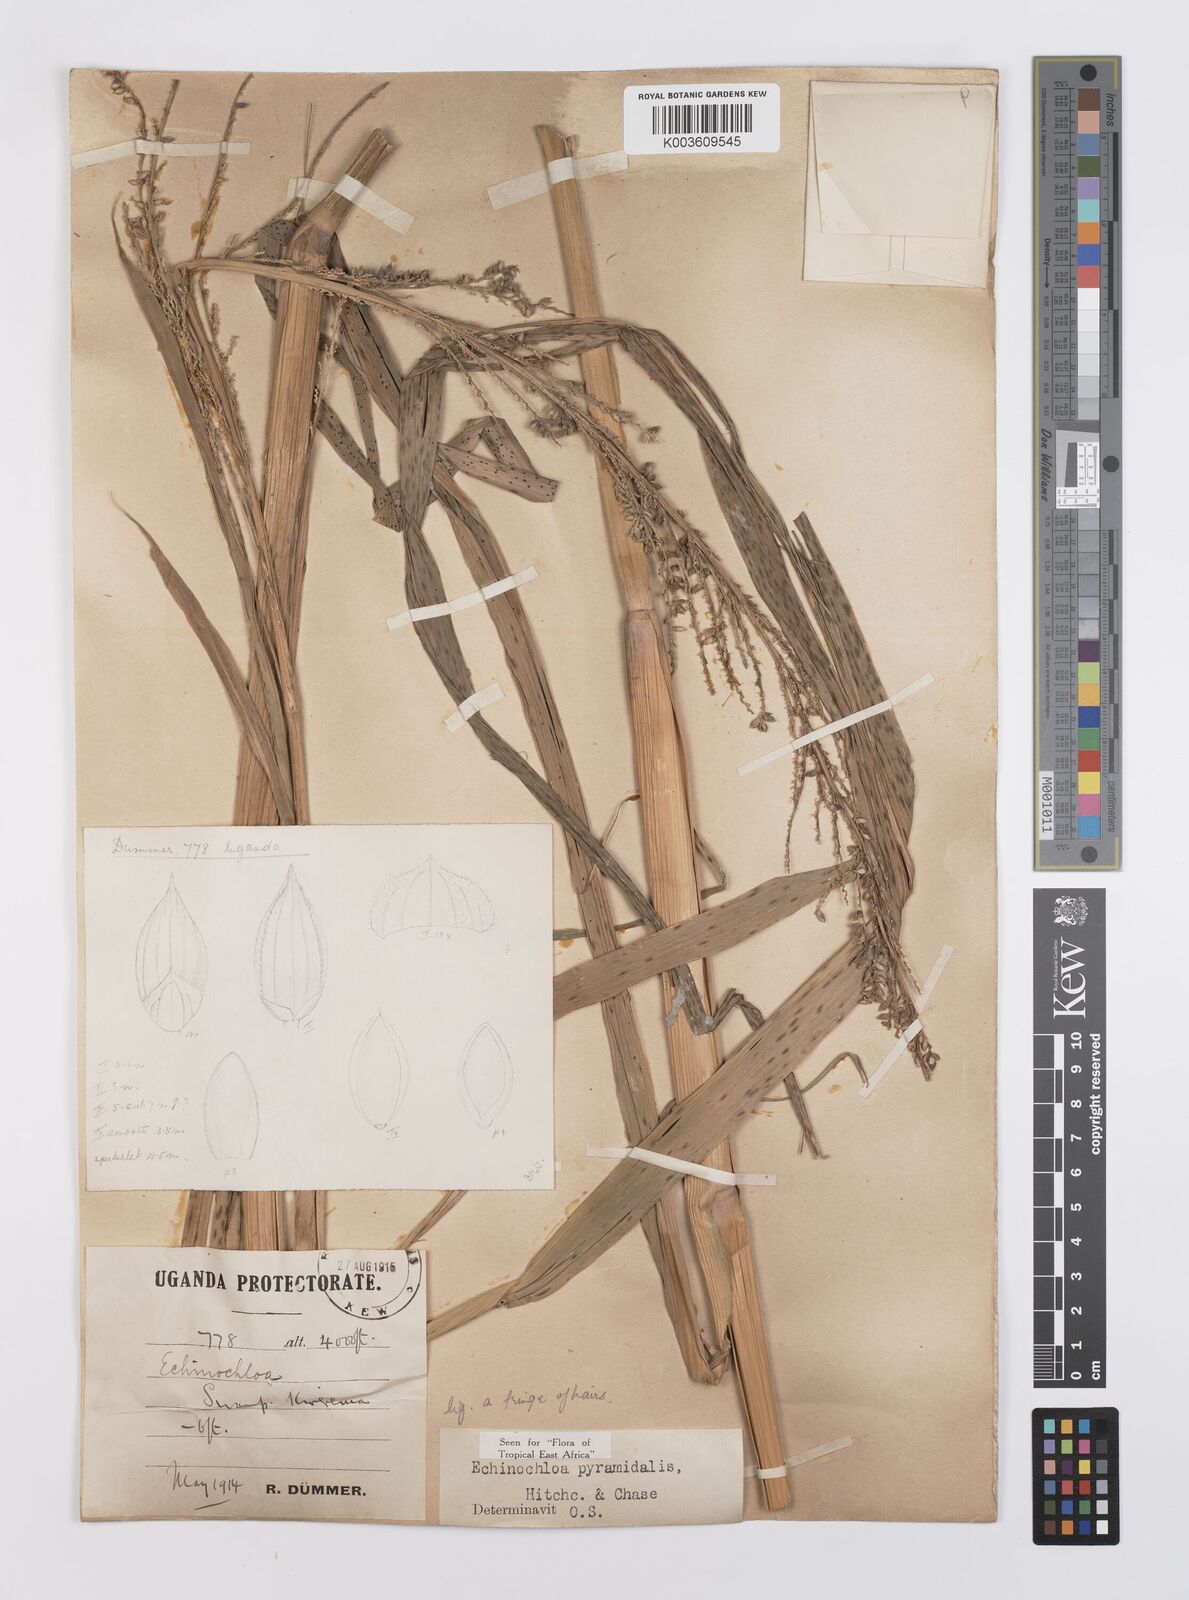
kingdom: Plantae
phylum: Tracheophyta
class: Liliopsida
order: Poales
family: Poaceae
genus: Echinochloa
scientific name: Echinochloa pyramidalis
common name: Antelope grass
